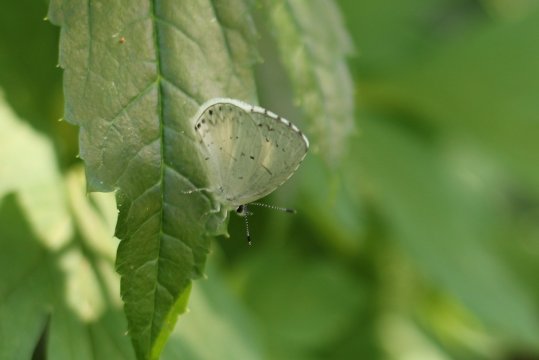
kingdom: Animalia
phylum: Arthropoda
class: Insecta
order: Lepidoptera
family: Lycaenidae
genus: Cyaniris
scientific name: Cyaniris neglecta
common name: Summer Azure
